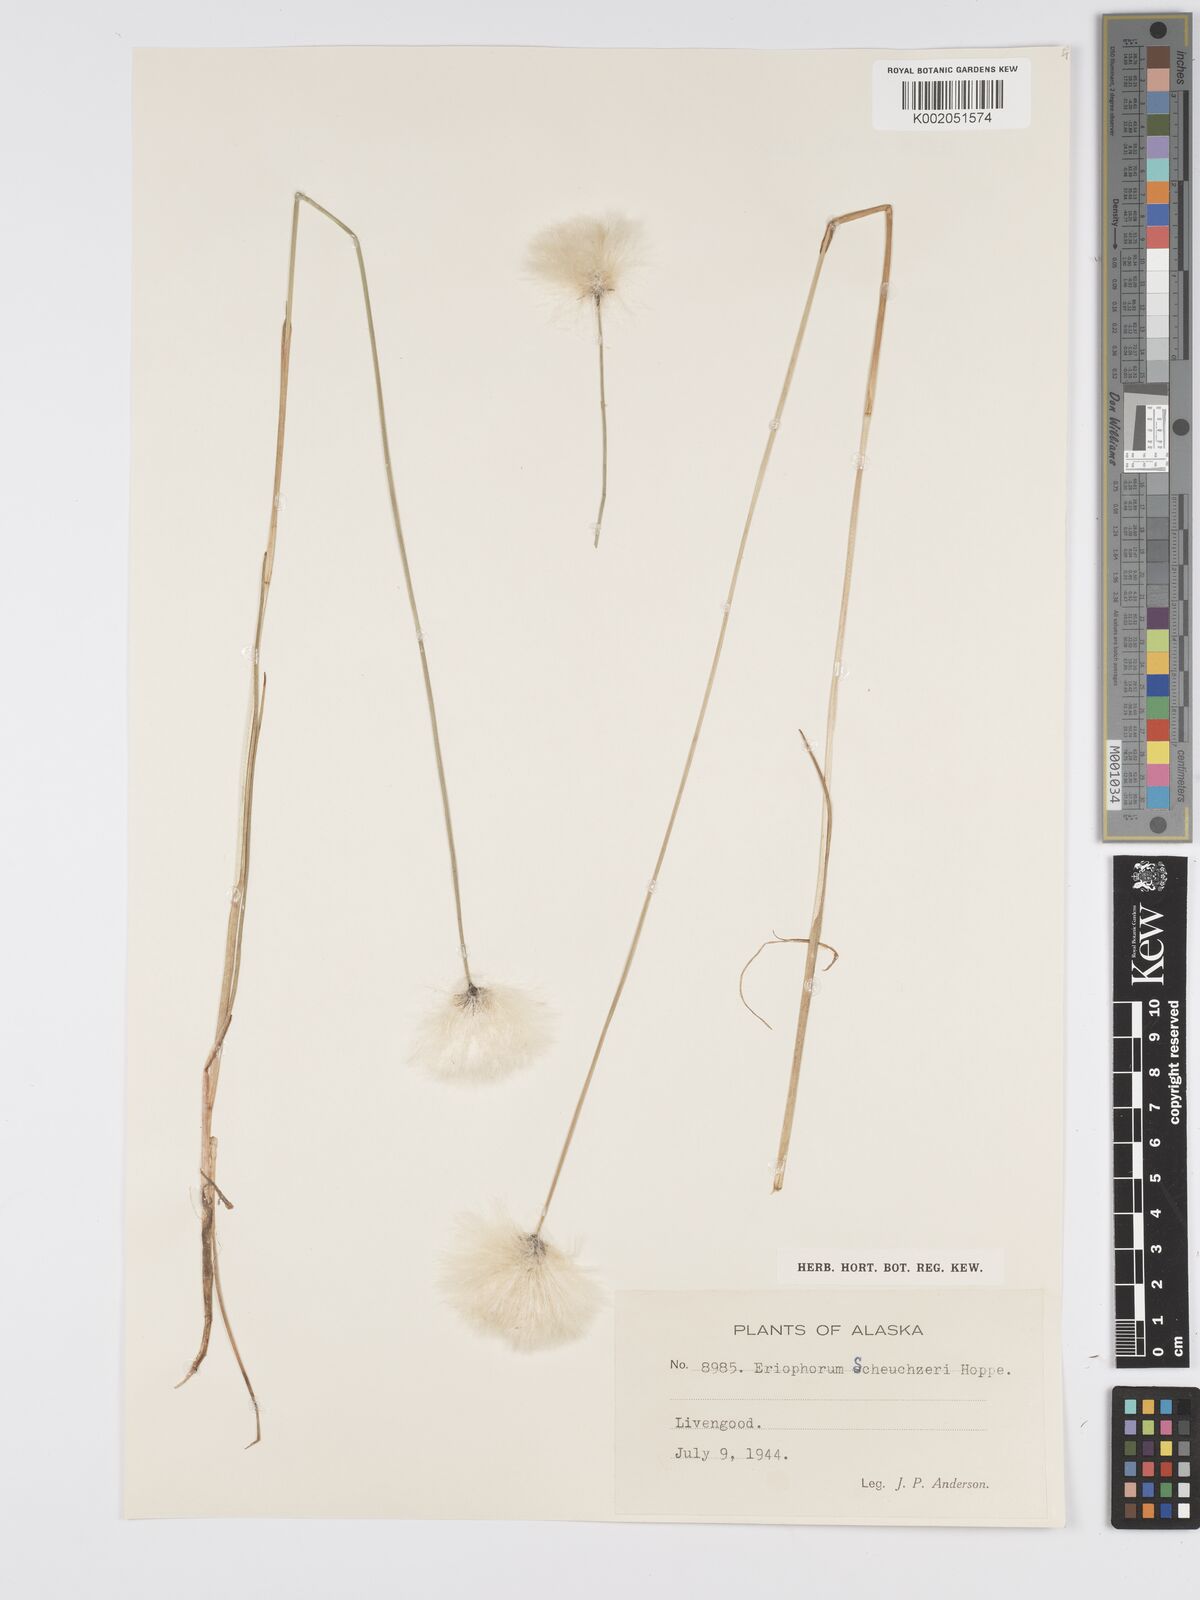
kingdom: Plantae
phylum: Tracheophyta
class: Liliopsida
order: Poales
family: Cyperaceae
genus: Eriophorum
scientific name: Eriophorum scheuchzeri
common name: Scheuchzer's cottongrass
